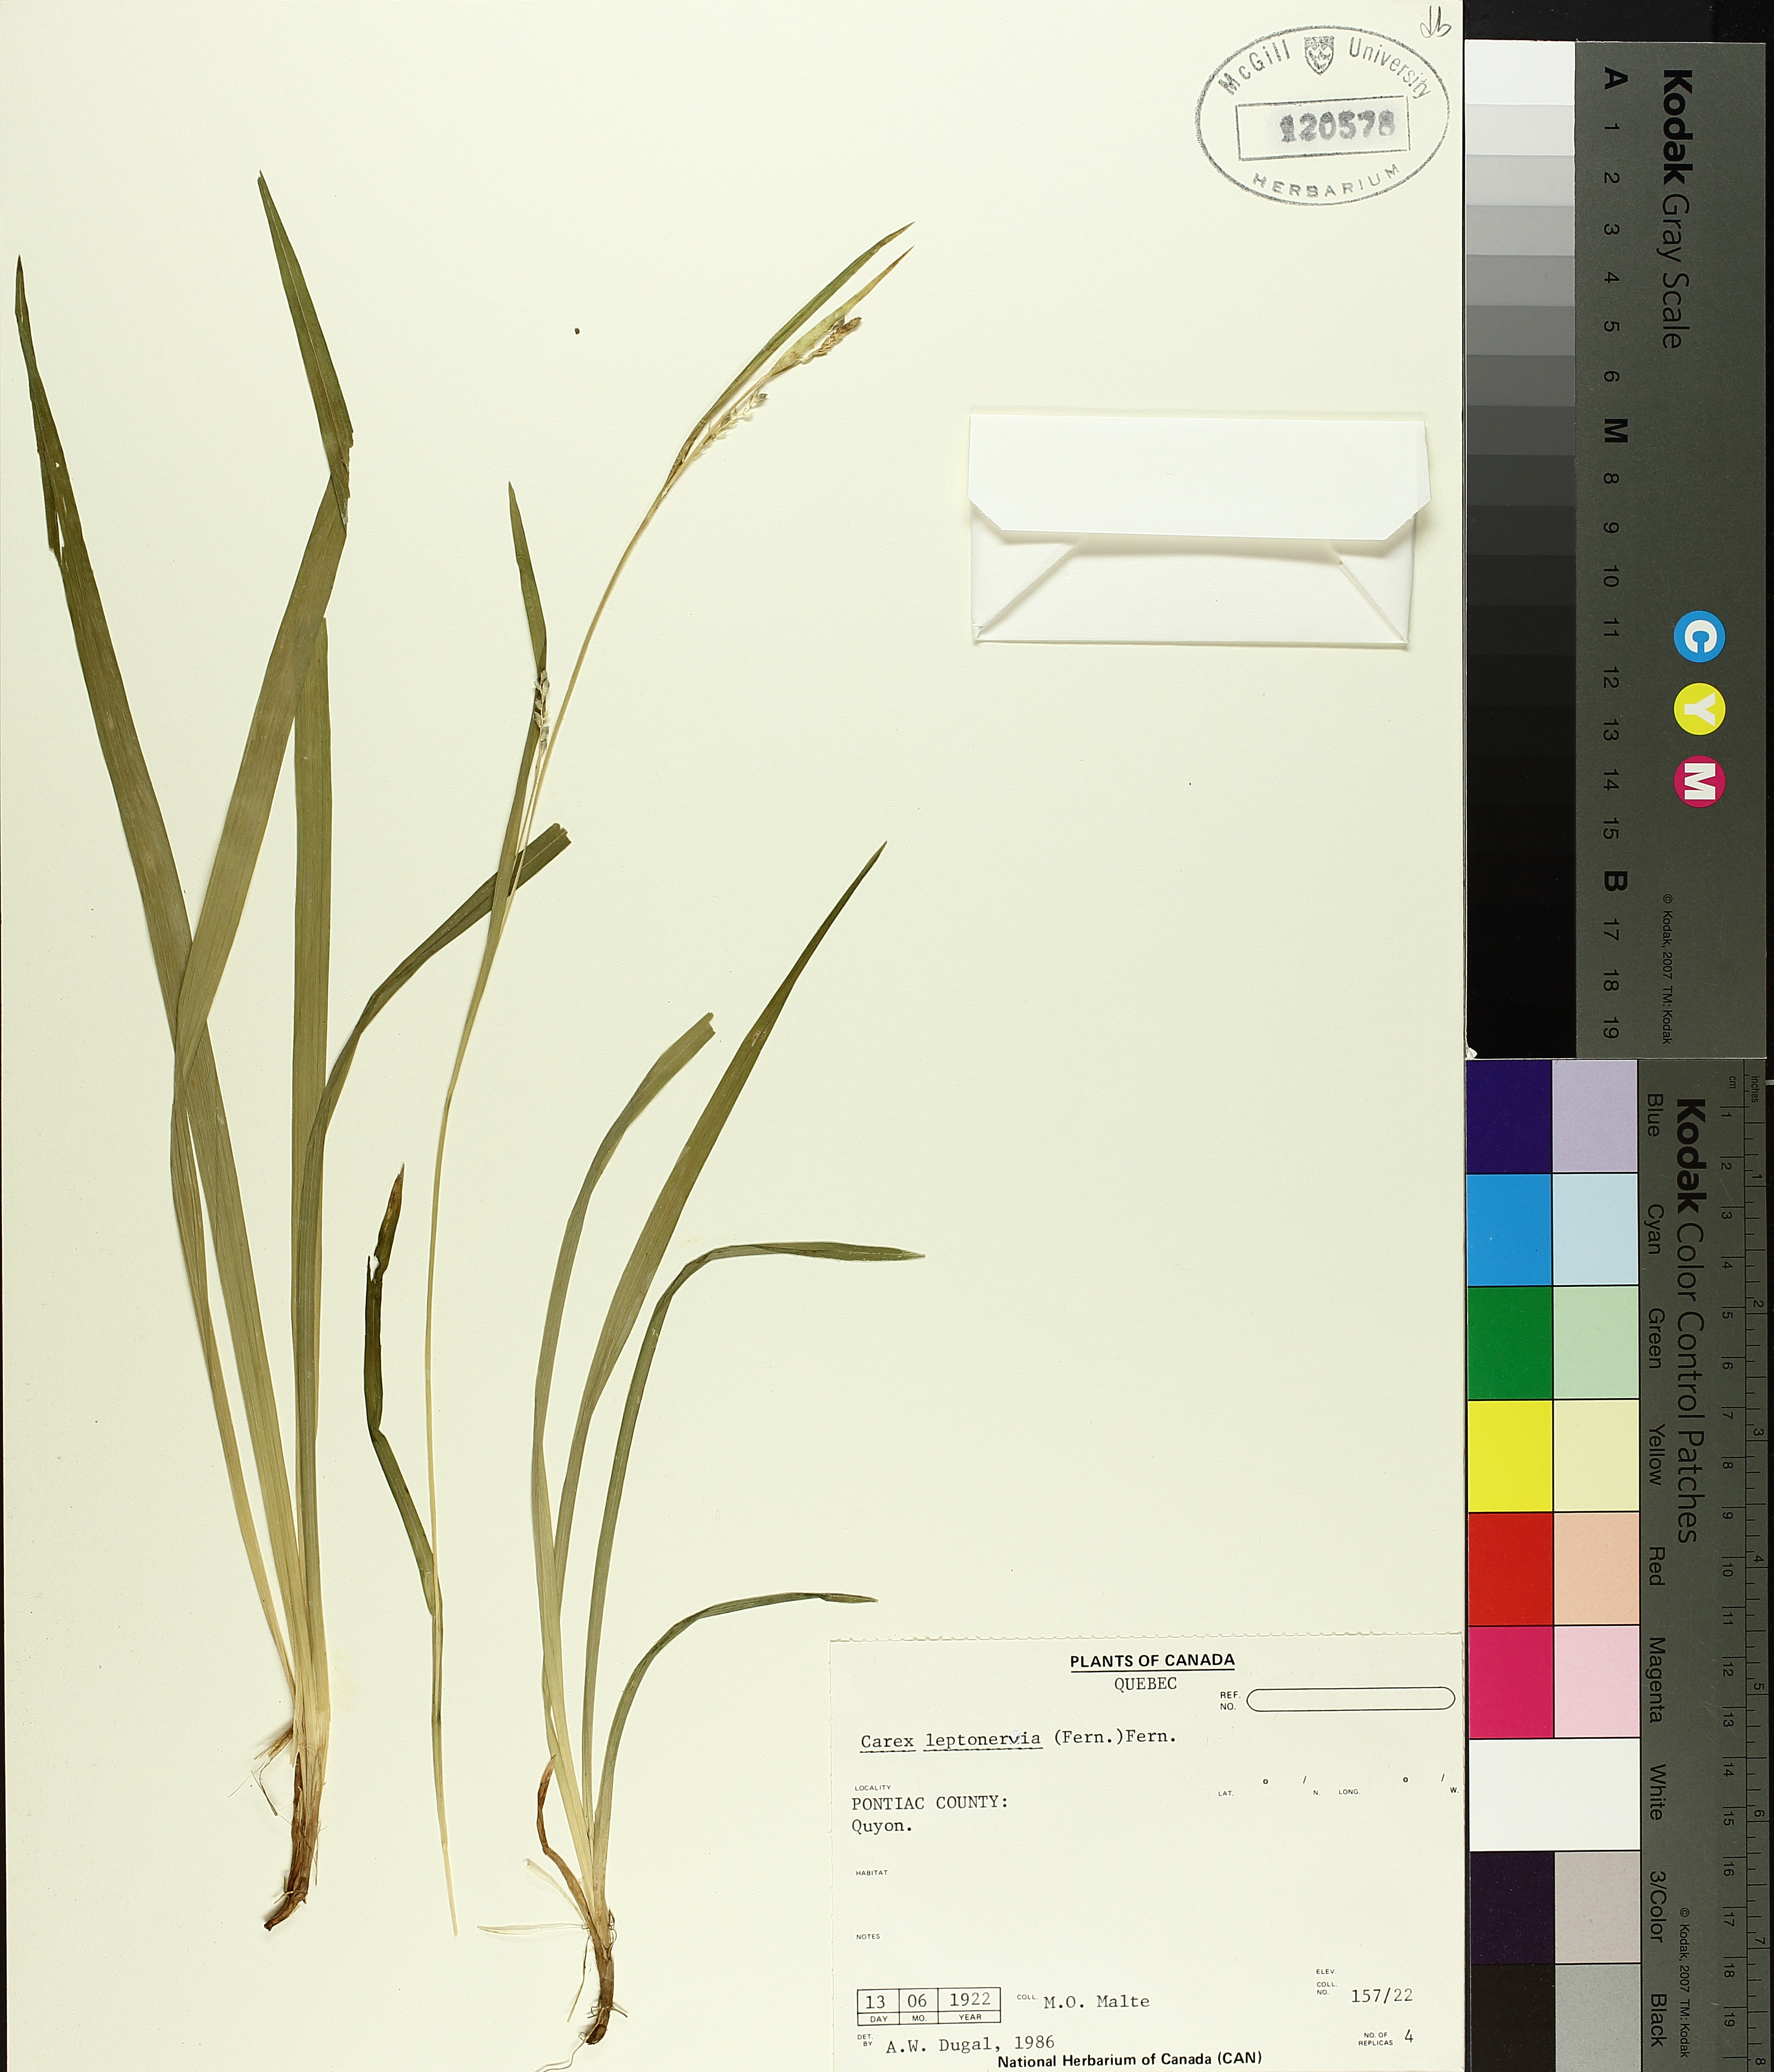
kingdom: Plantae
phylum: Tracheophyta
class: Liliopsida
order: Poales
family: Cyperaceae
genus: Carex
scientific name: Carex leptonervia
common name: Few-nerved wood sedge
